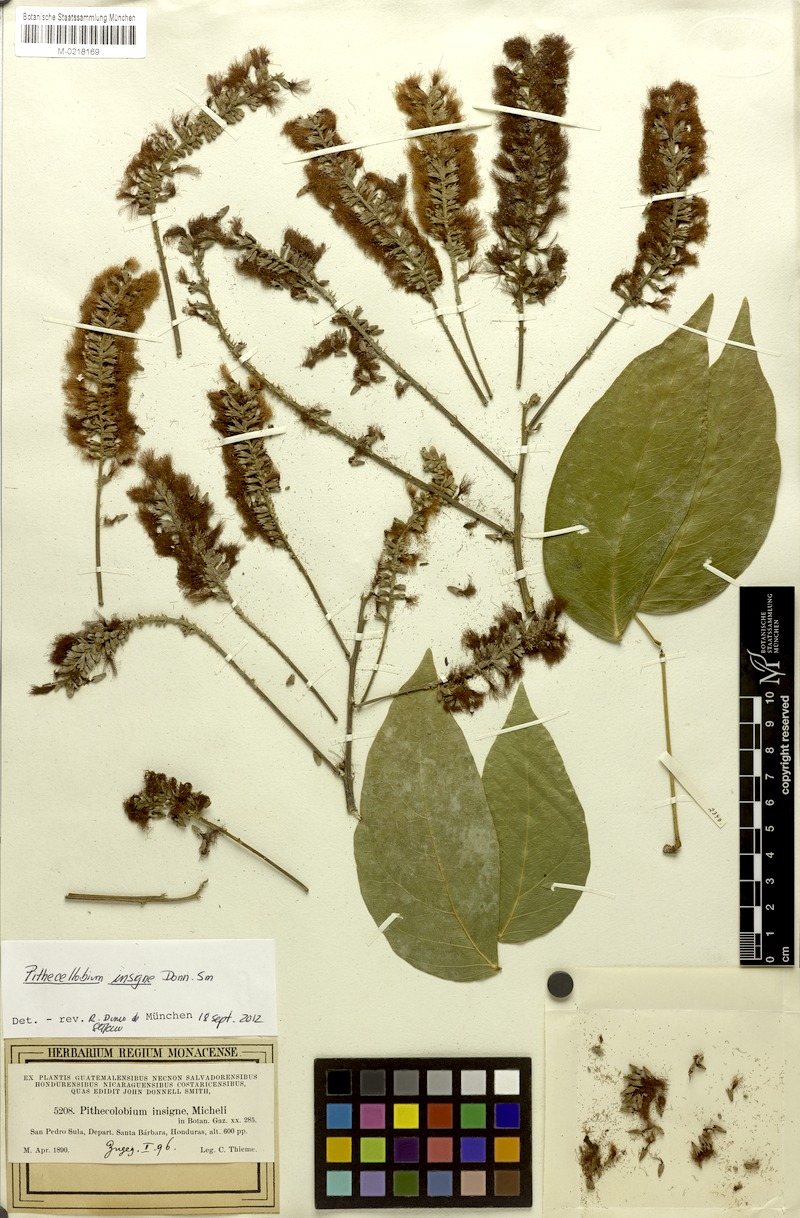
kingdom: Plantae
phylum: Tracheophyta
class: Magnoliopsida
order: Fabales
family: Fabaceae
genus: Pithecellobium
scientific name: Pithecellobium lanceolatum
